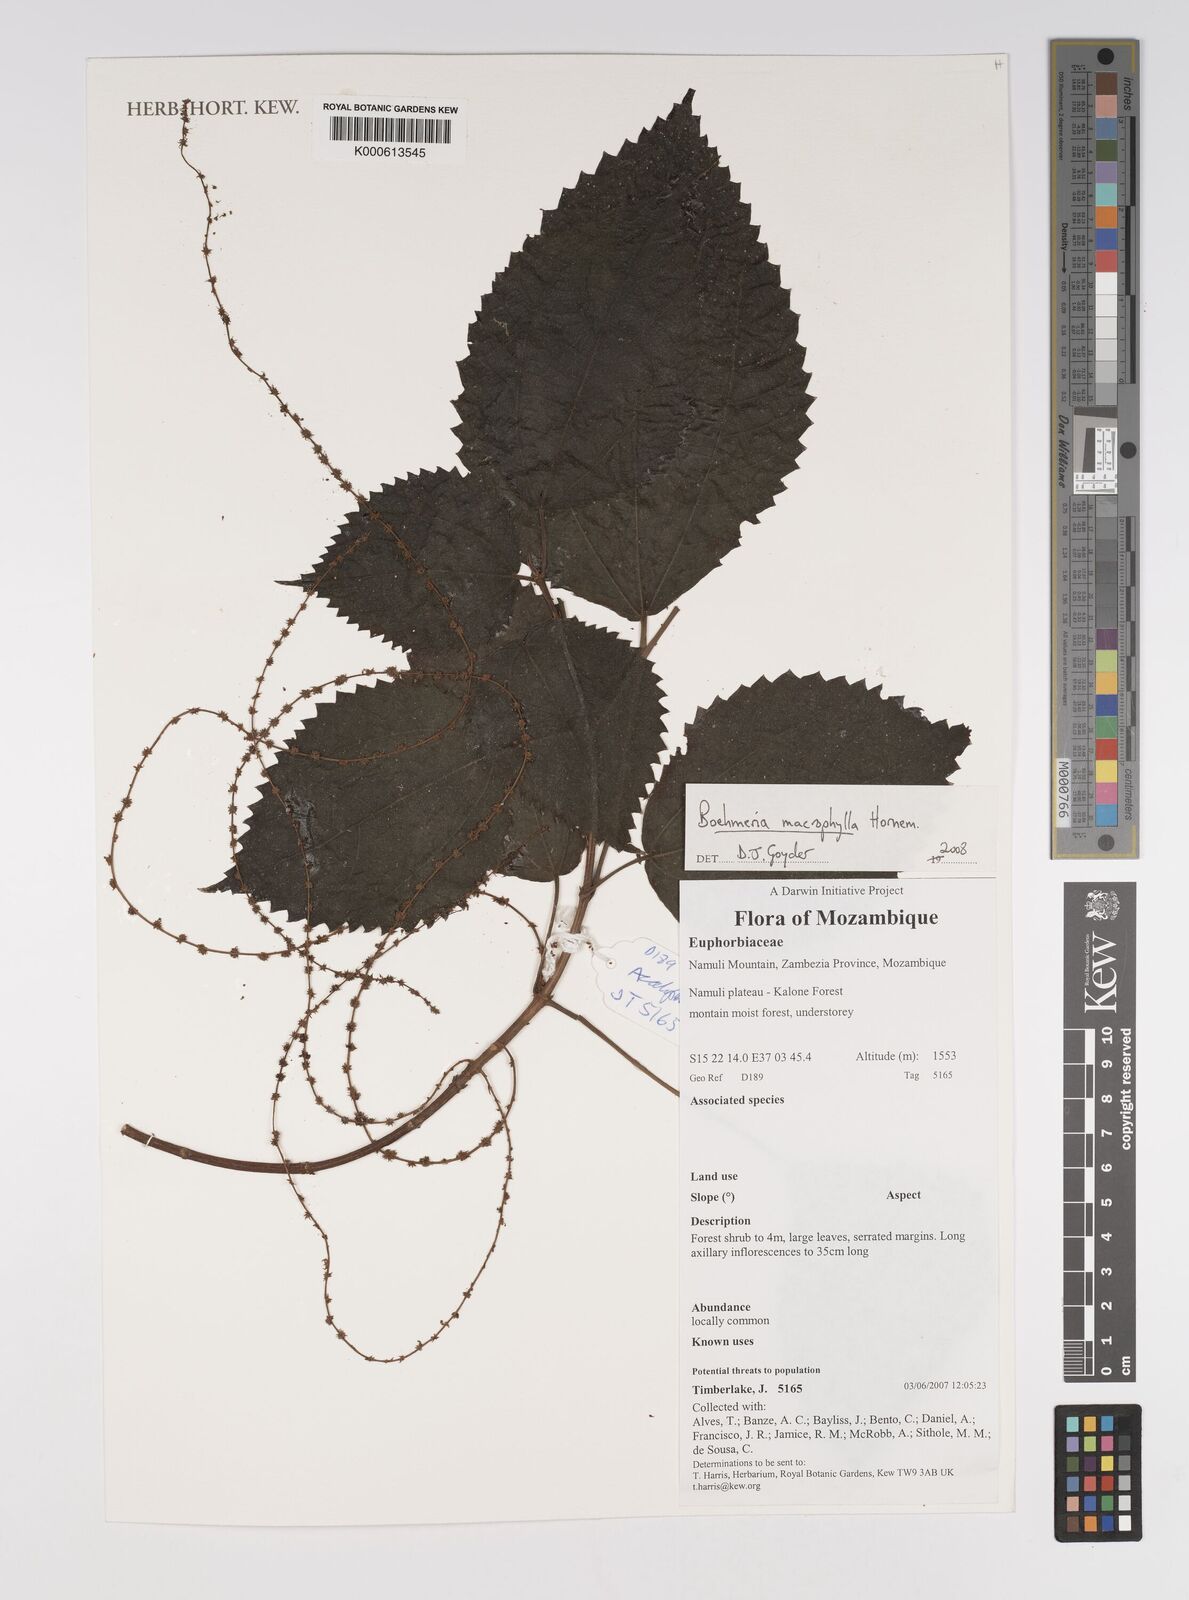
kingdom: Plantae
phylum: Tracheophyta
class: Magnoliopsida
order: Rosales
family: Urticaceae
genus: Boehmeria
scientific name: Boehmeria virgata
